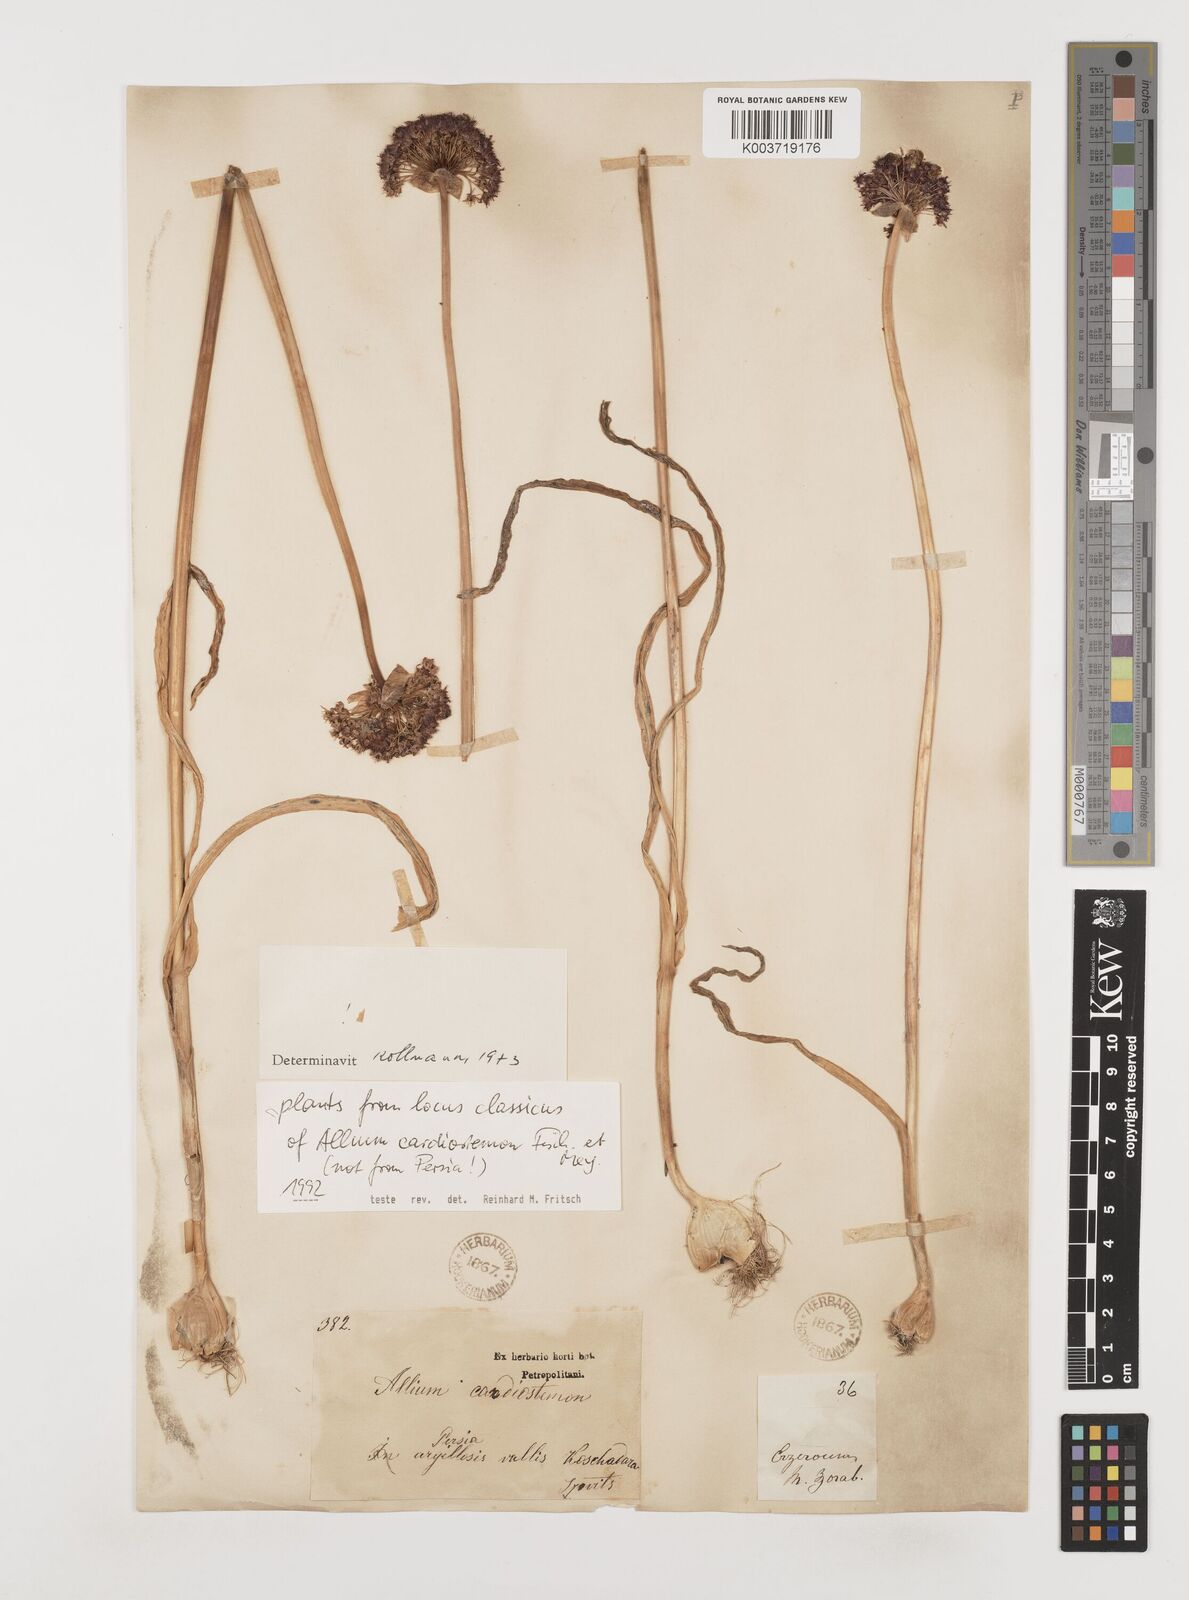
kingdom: Plantae
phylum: Tracheophyta
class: Liliopsida
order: Asparagales
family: Amaryllidaceae
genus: Allium
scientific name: Allium cardiostemon
